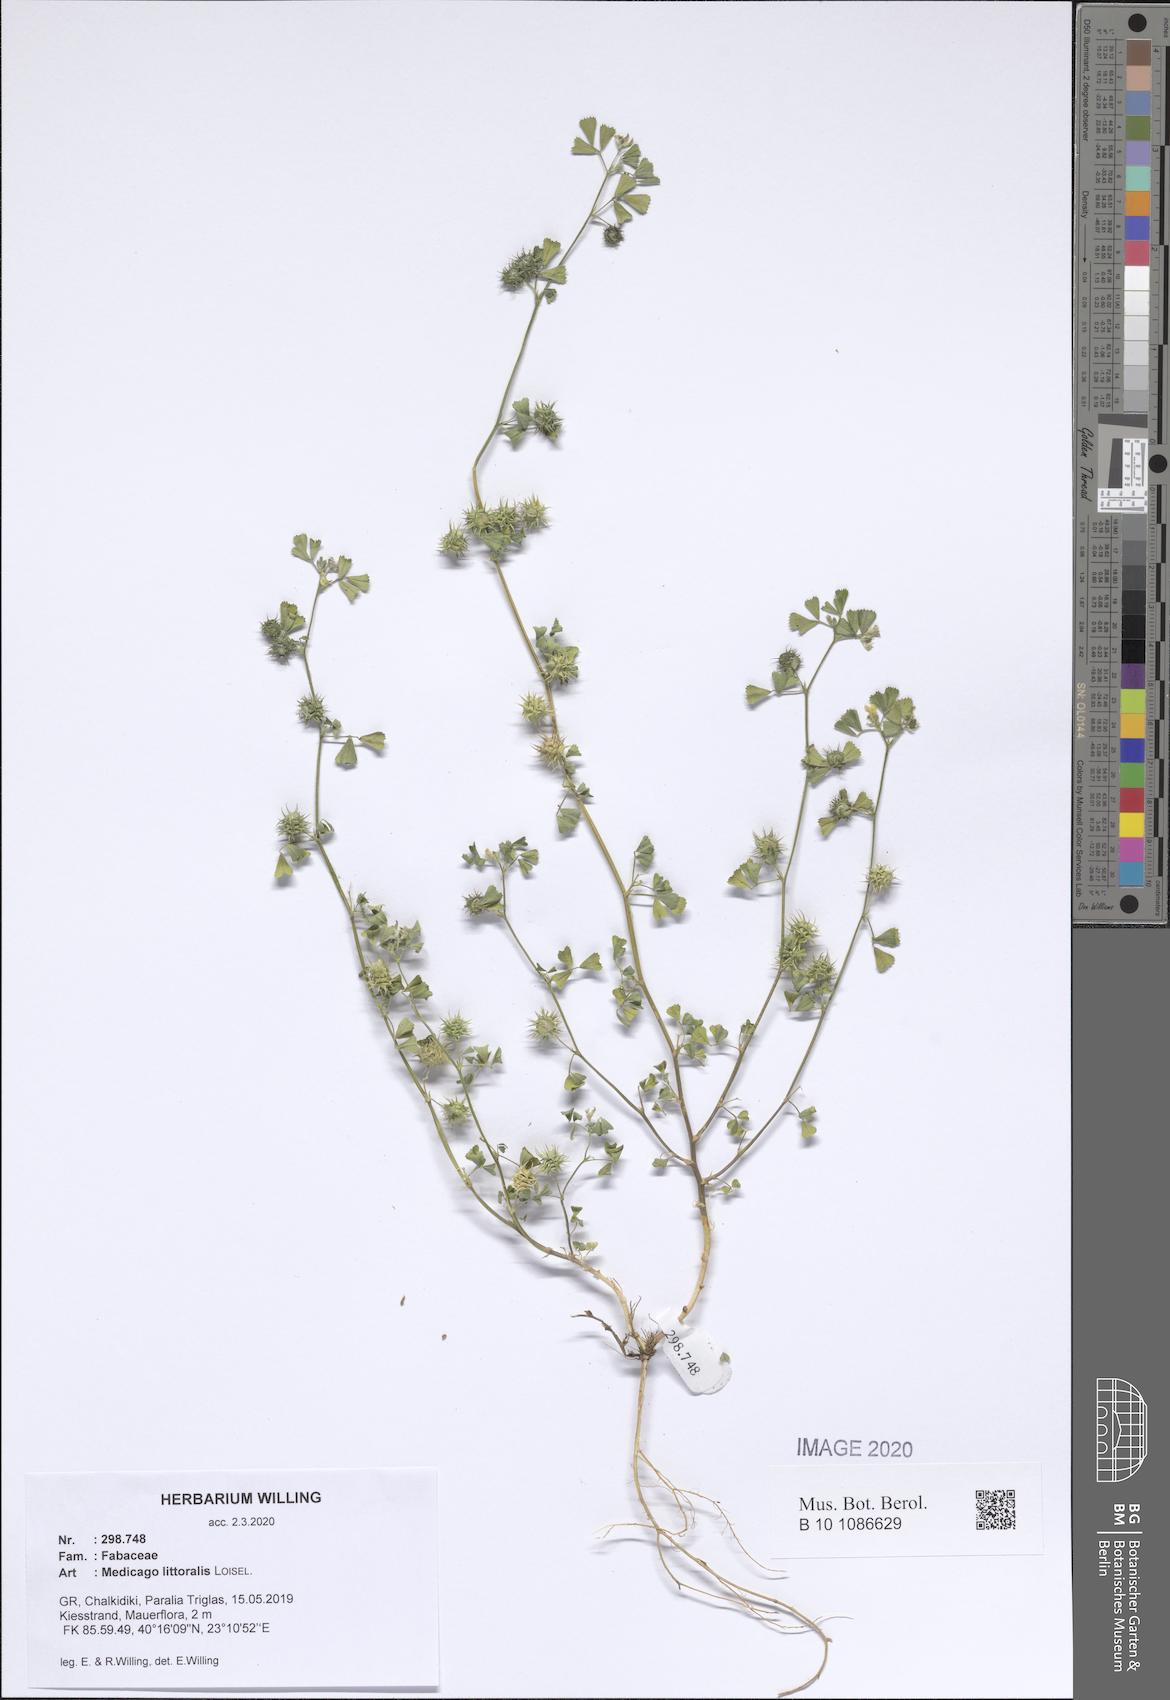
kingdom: Plantae
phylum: Tracheophyta
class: Magnoliopsida
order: Fabales
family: Fabaceae
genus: Medicago
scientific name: Medicago littoralis
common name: Shore medick
